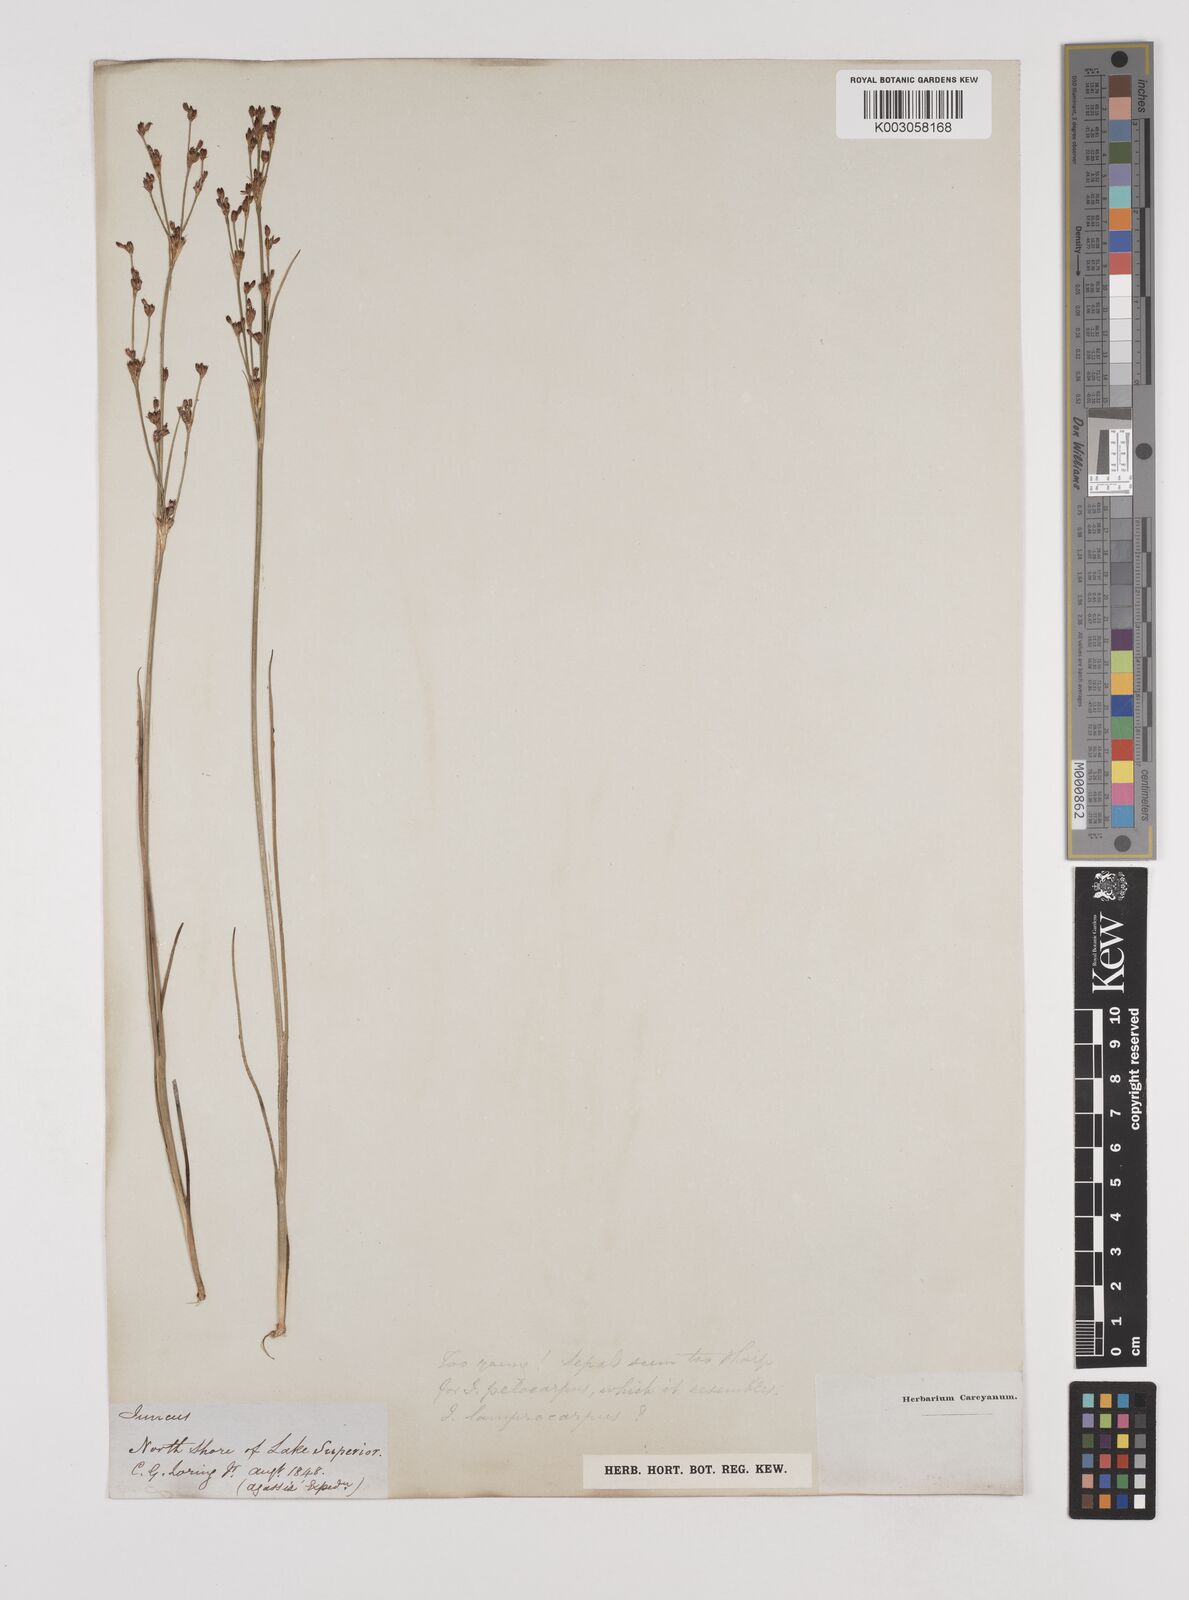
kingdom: Plantae
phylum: Tracheophyta
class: Liliopsida
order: Poales
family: Juncaceae
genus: Juncus
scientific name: Juncus
